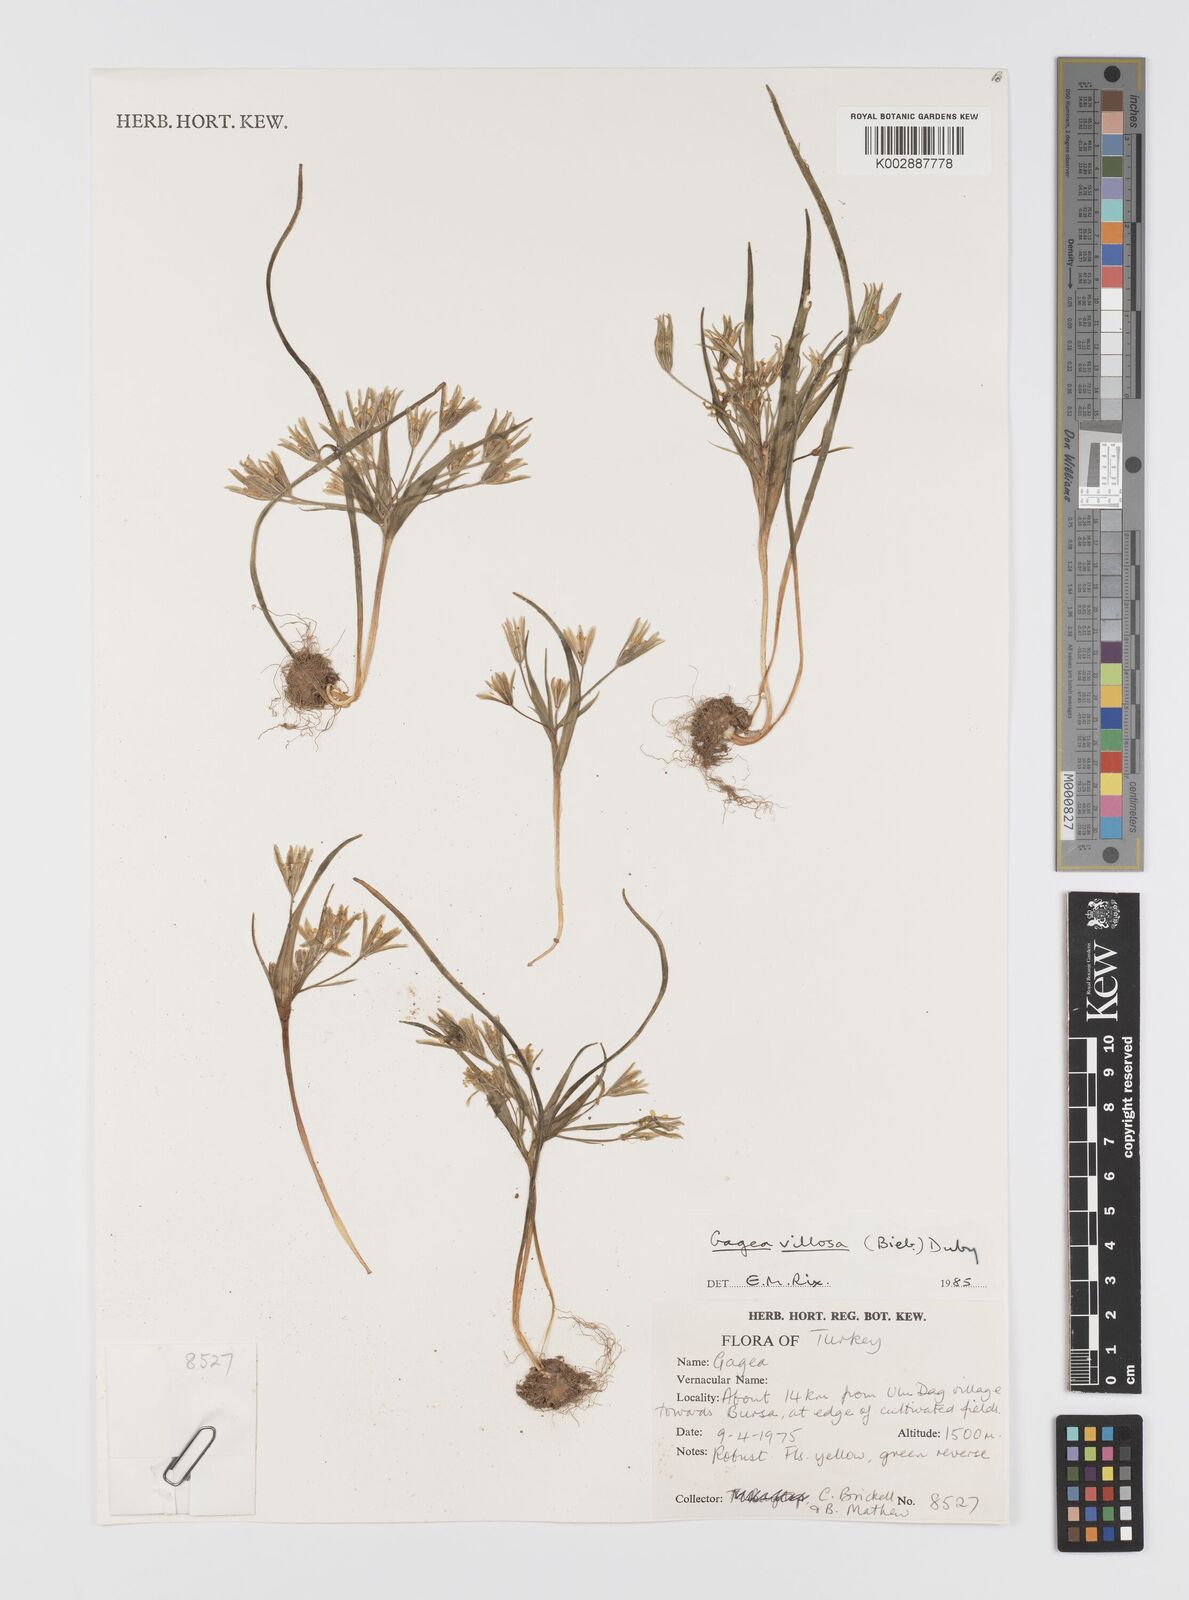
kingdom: Plantae
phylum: Tracheophyta
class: Liliopsida
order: Liliales
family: Liliaceae
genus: Gagea
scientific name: Gagea villosa
